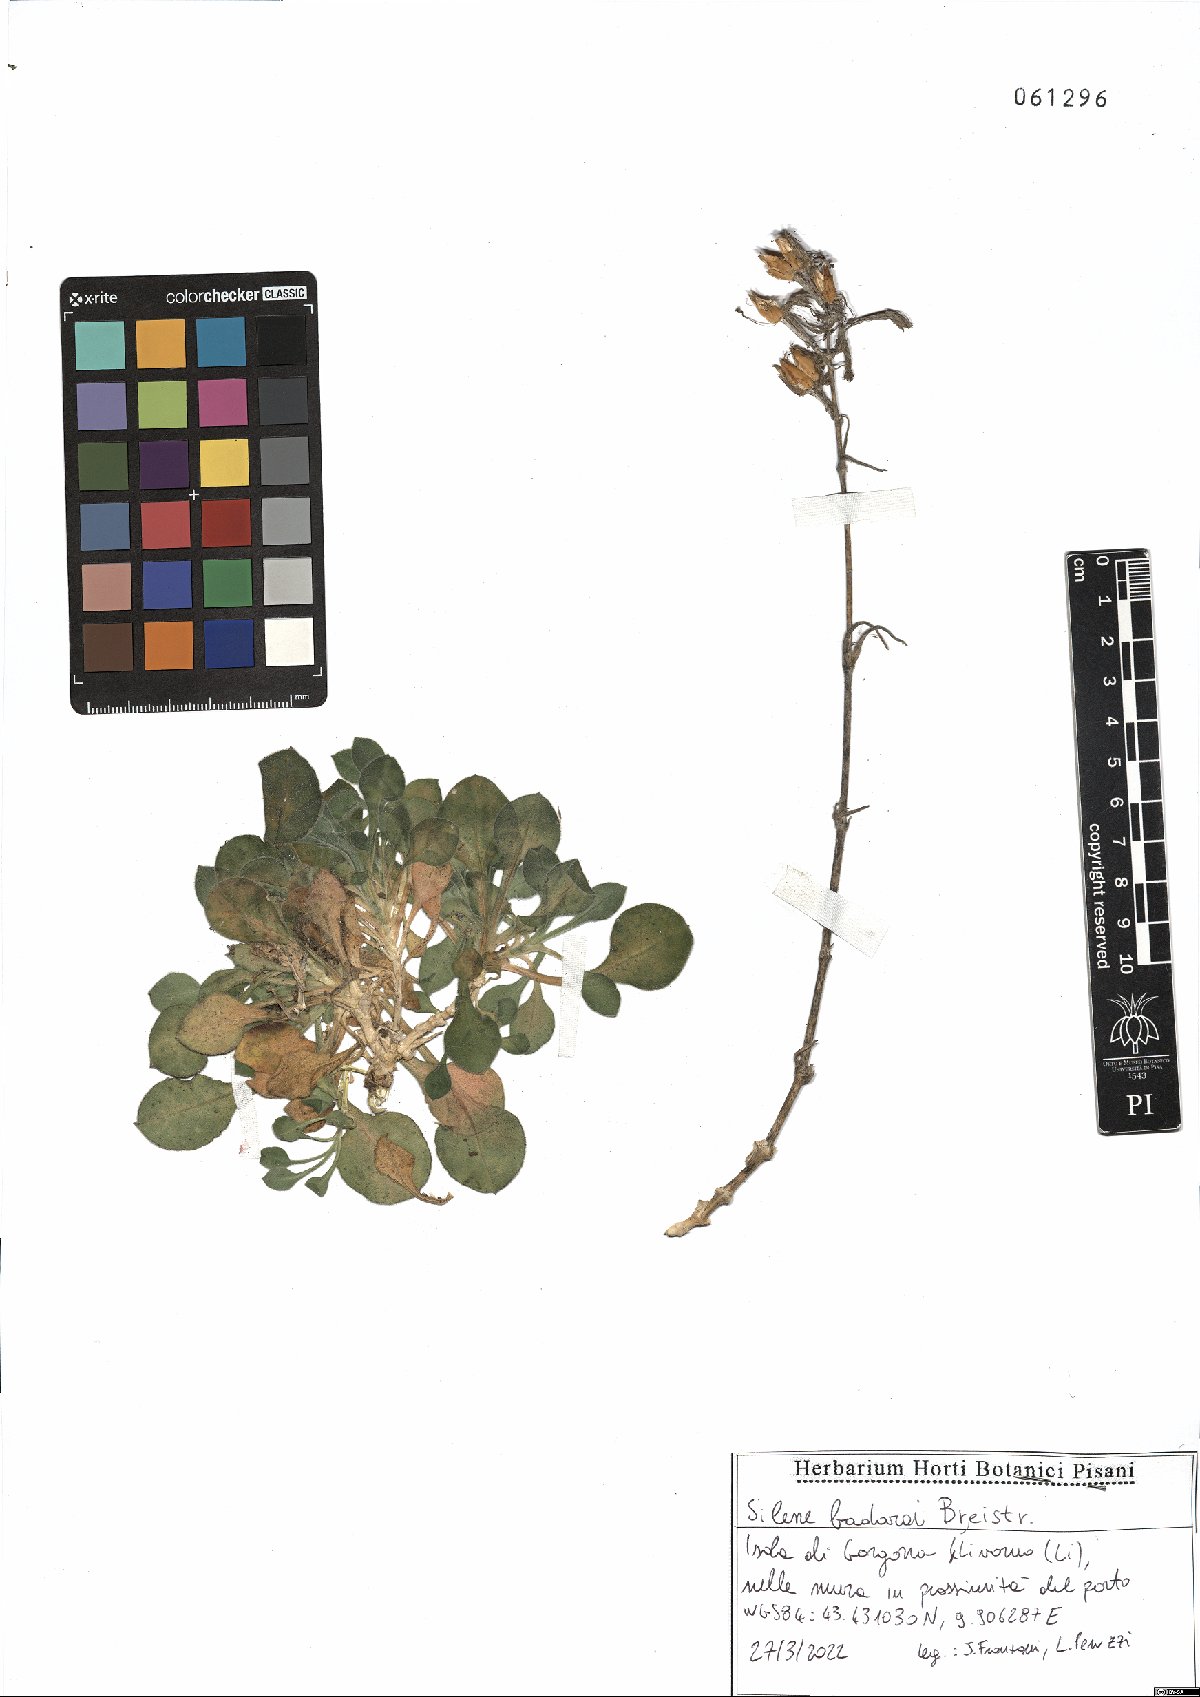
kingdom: Plantae
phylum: Tracheophyta
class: Magnoliopsida
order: Caryophyllales
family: Caryophyllaceae
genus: Silene
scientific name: Silene badaroi
